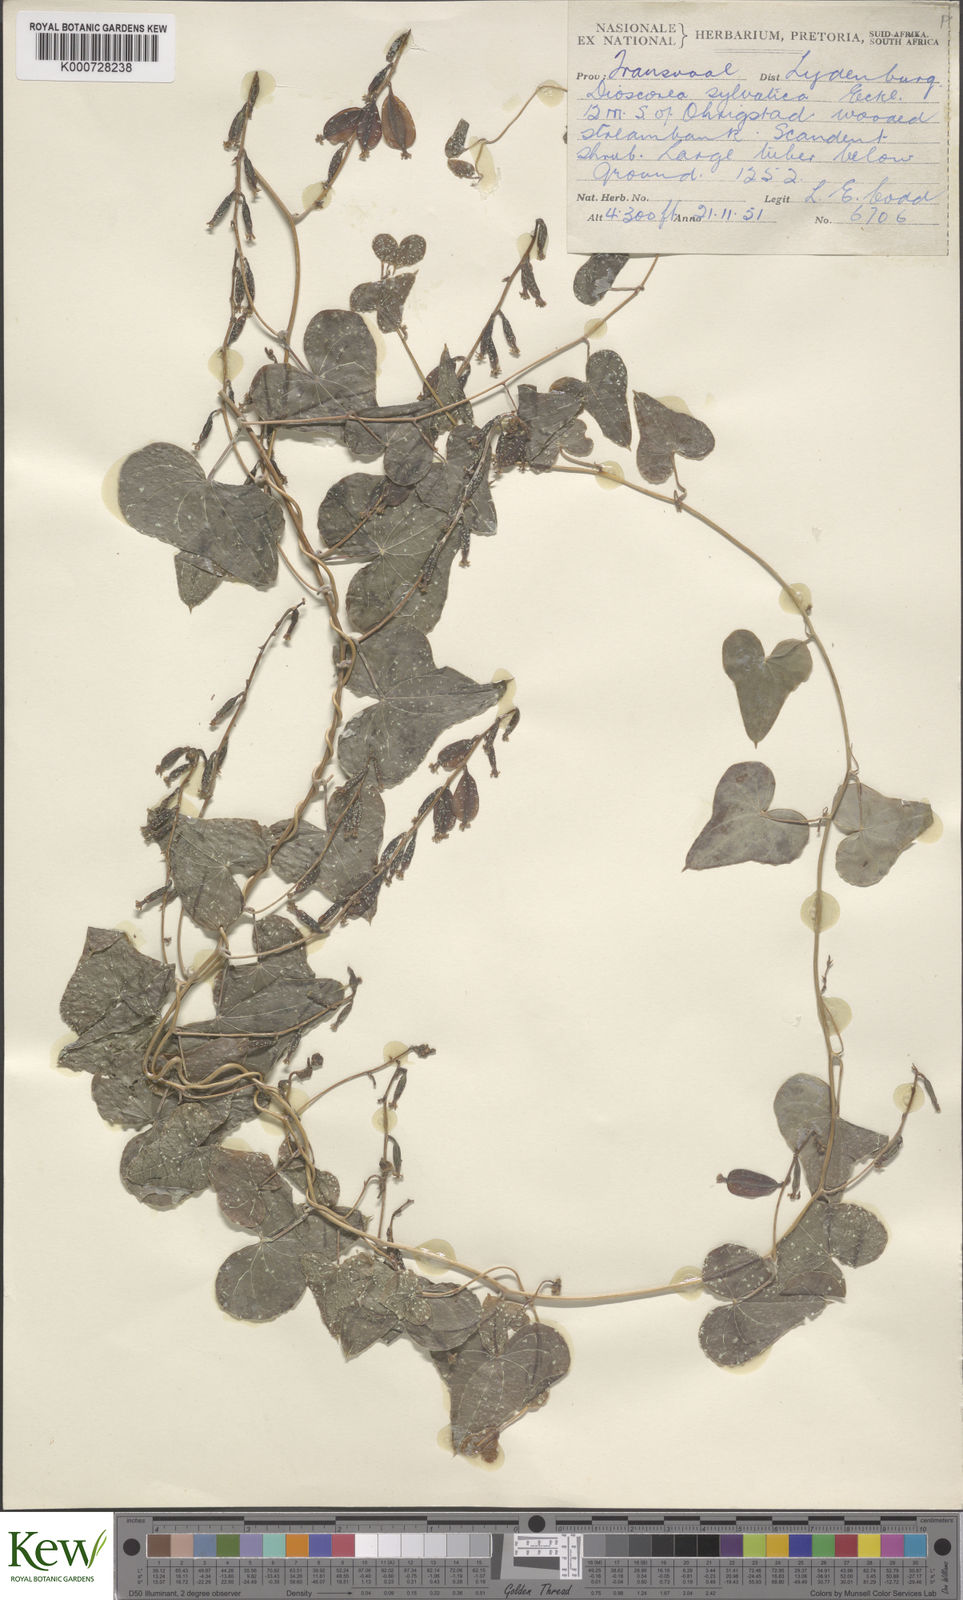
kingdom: Plantae
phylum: Tracheophyta
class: Liliopsida
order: Dioscoreales
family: Dioscoreaceae
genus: Dioscorea
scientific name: Dioscorea sylvatica
